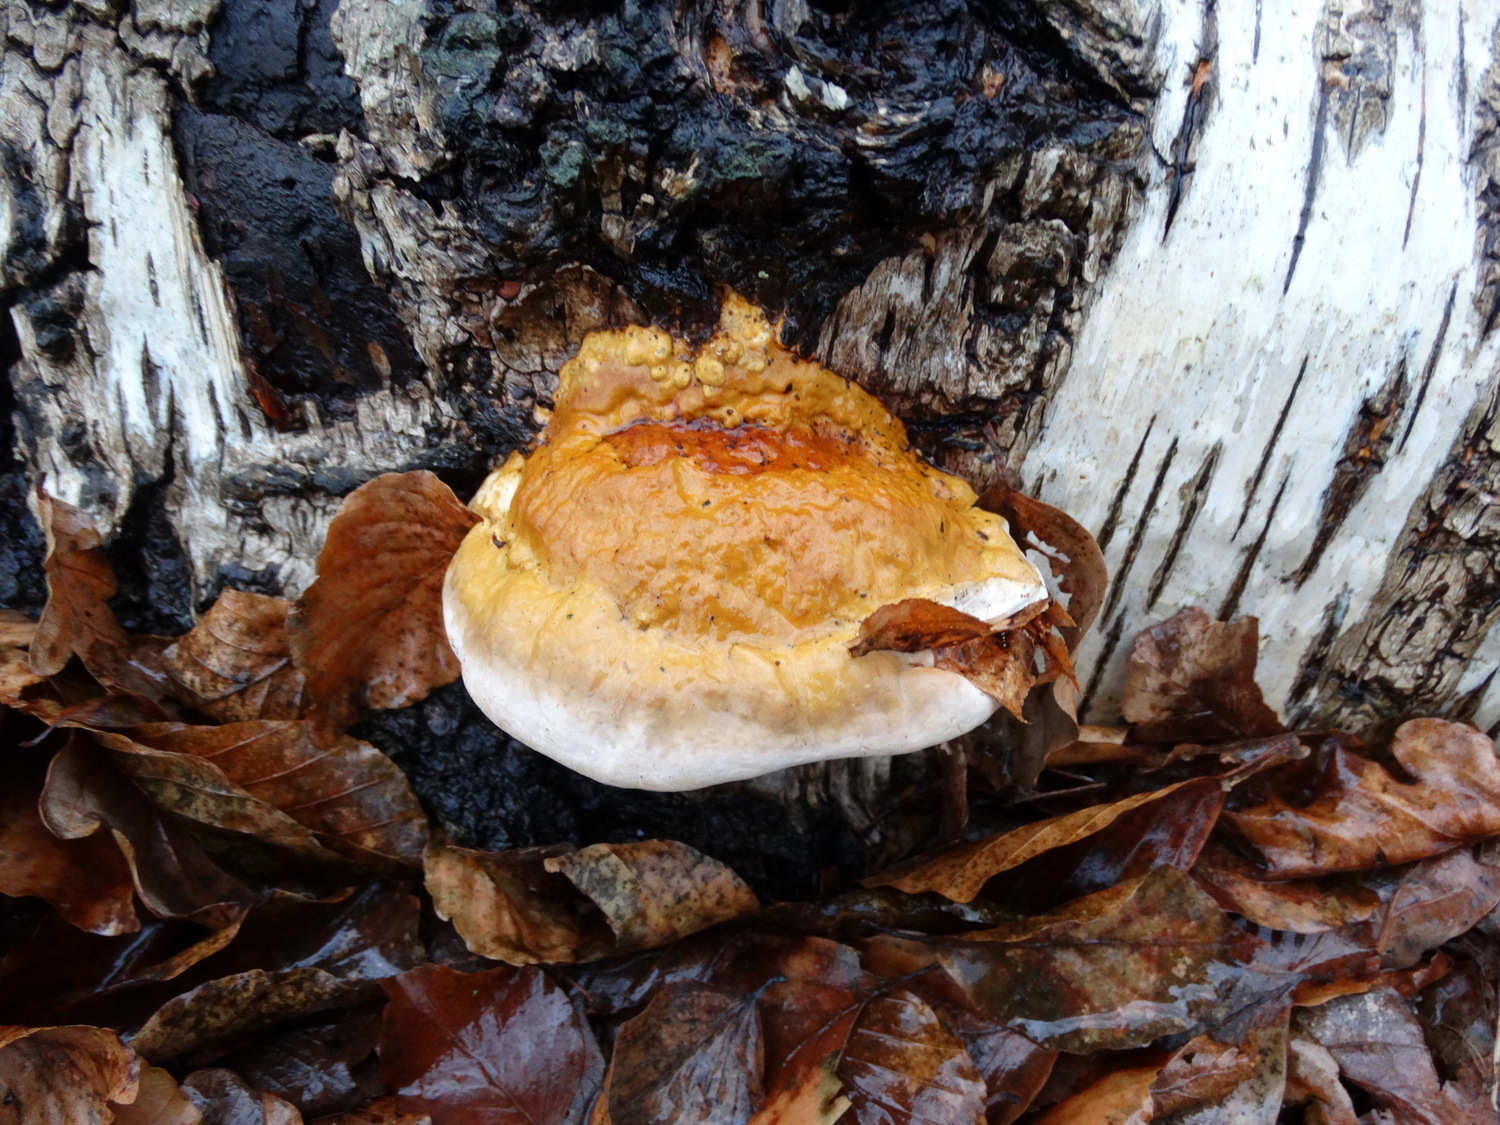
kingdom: Fungi
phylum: Basidiomycota
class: Agaricomycetes
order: Polyporales
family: Fomitopsidaceae
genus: Fomitopsis
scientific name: Fomitopsis pinicola
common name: randbæltet hovporesvamp
